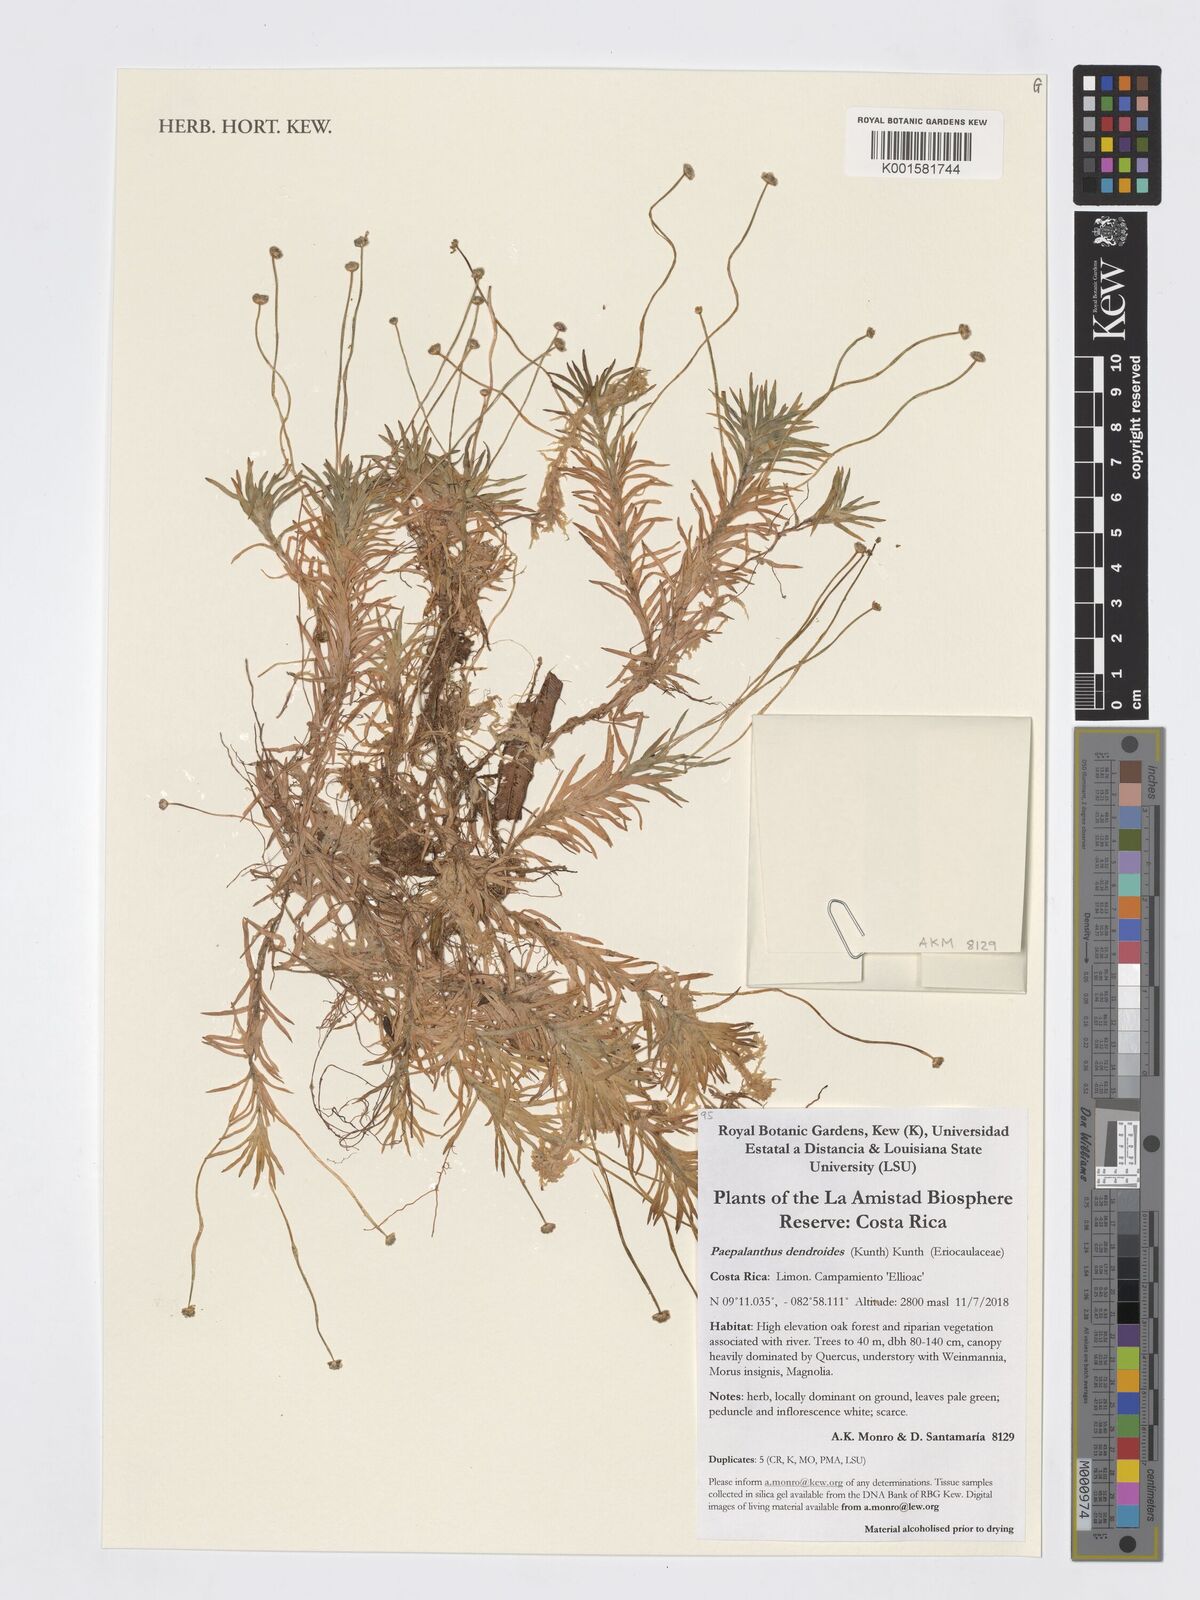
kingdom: Plantae
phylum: Tracheophyta
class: Liliopsida
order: Poales
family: Eriocaulaceae
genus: Paepalanthus
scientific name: Paepalanthus dendroides
